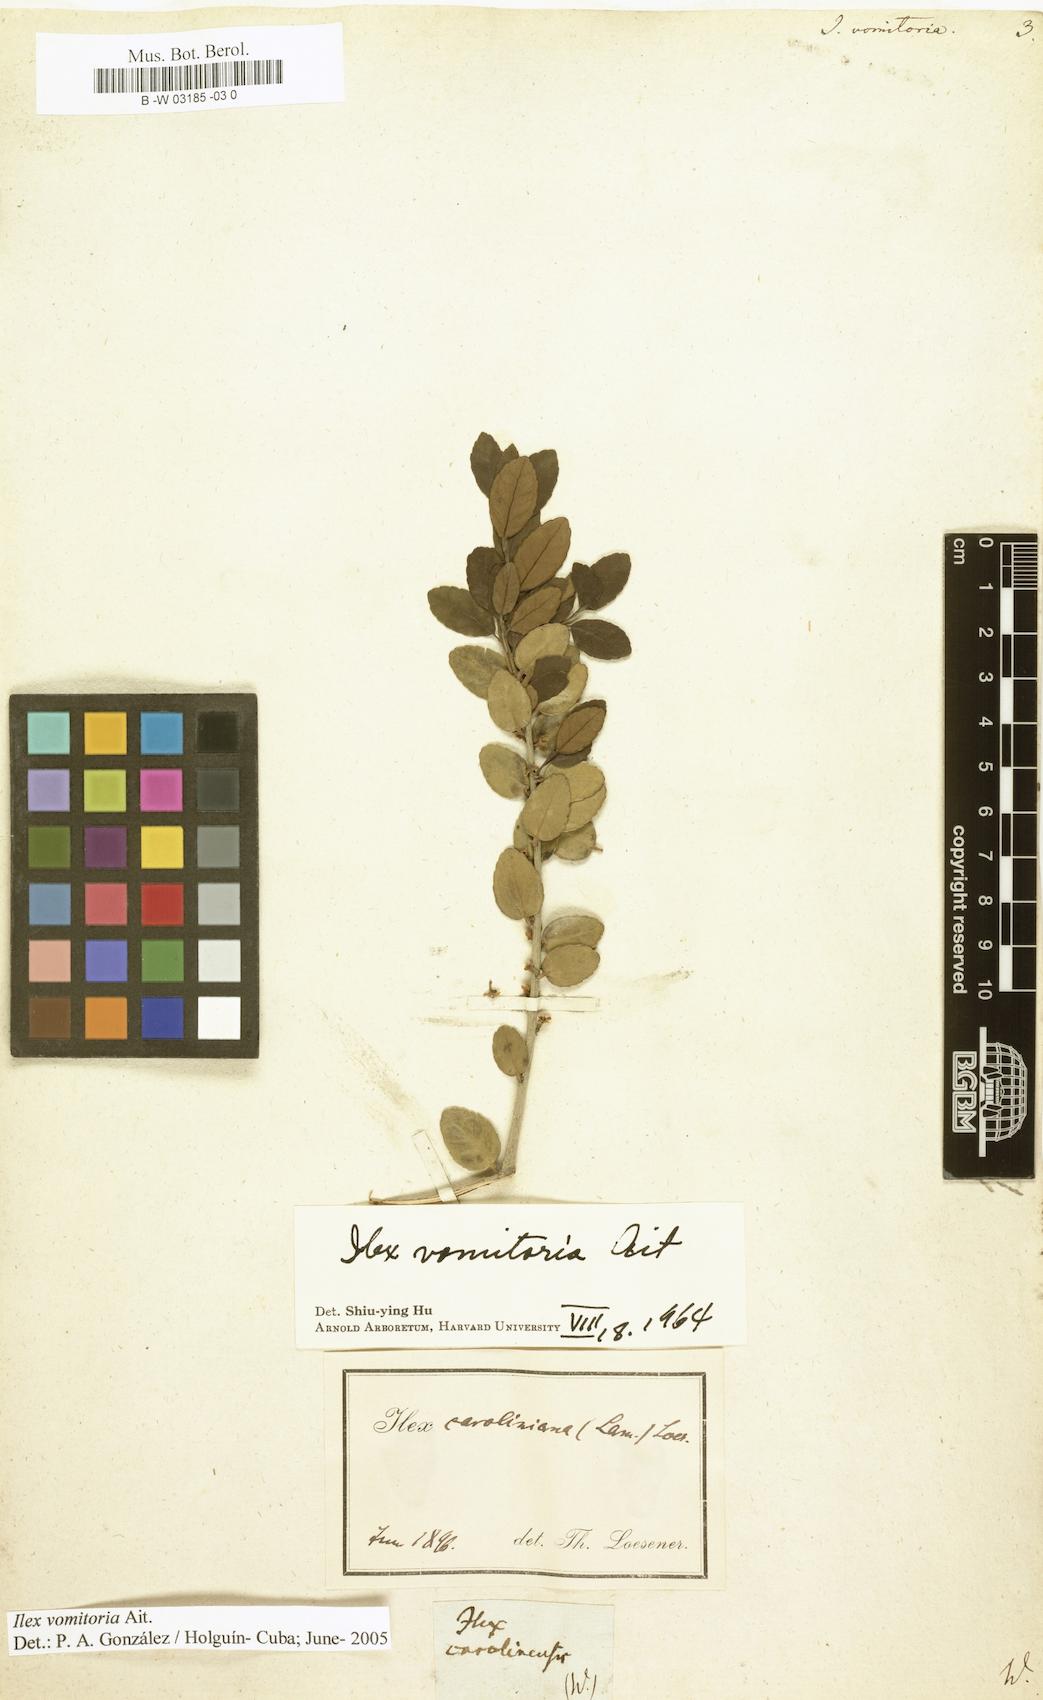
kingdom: Plantae
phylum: Tracheophyta
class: Magnoliopsida
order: Aquifoliales
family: Aquifoliaceae
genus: Ilex
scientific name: Ilex vomitoria
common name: Yaupon holly
